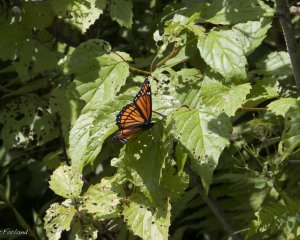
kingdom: Animalia
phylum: Arthropoda
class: Insecta
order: Lepidoptera
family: Nymphalidae
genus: Limenitis
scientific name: Limenitis archippus
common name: Viceroy
